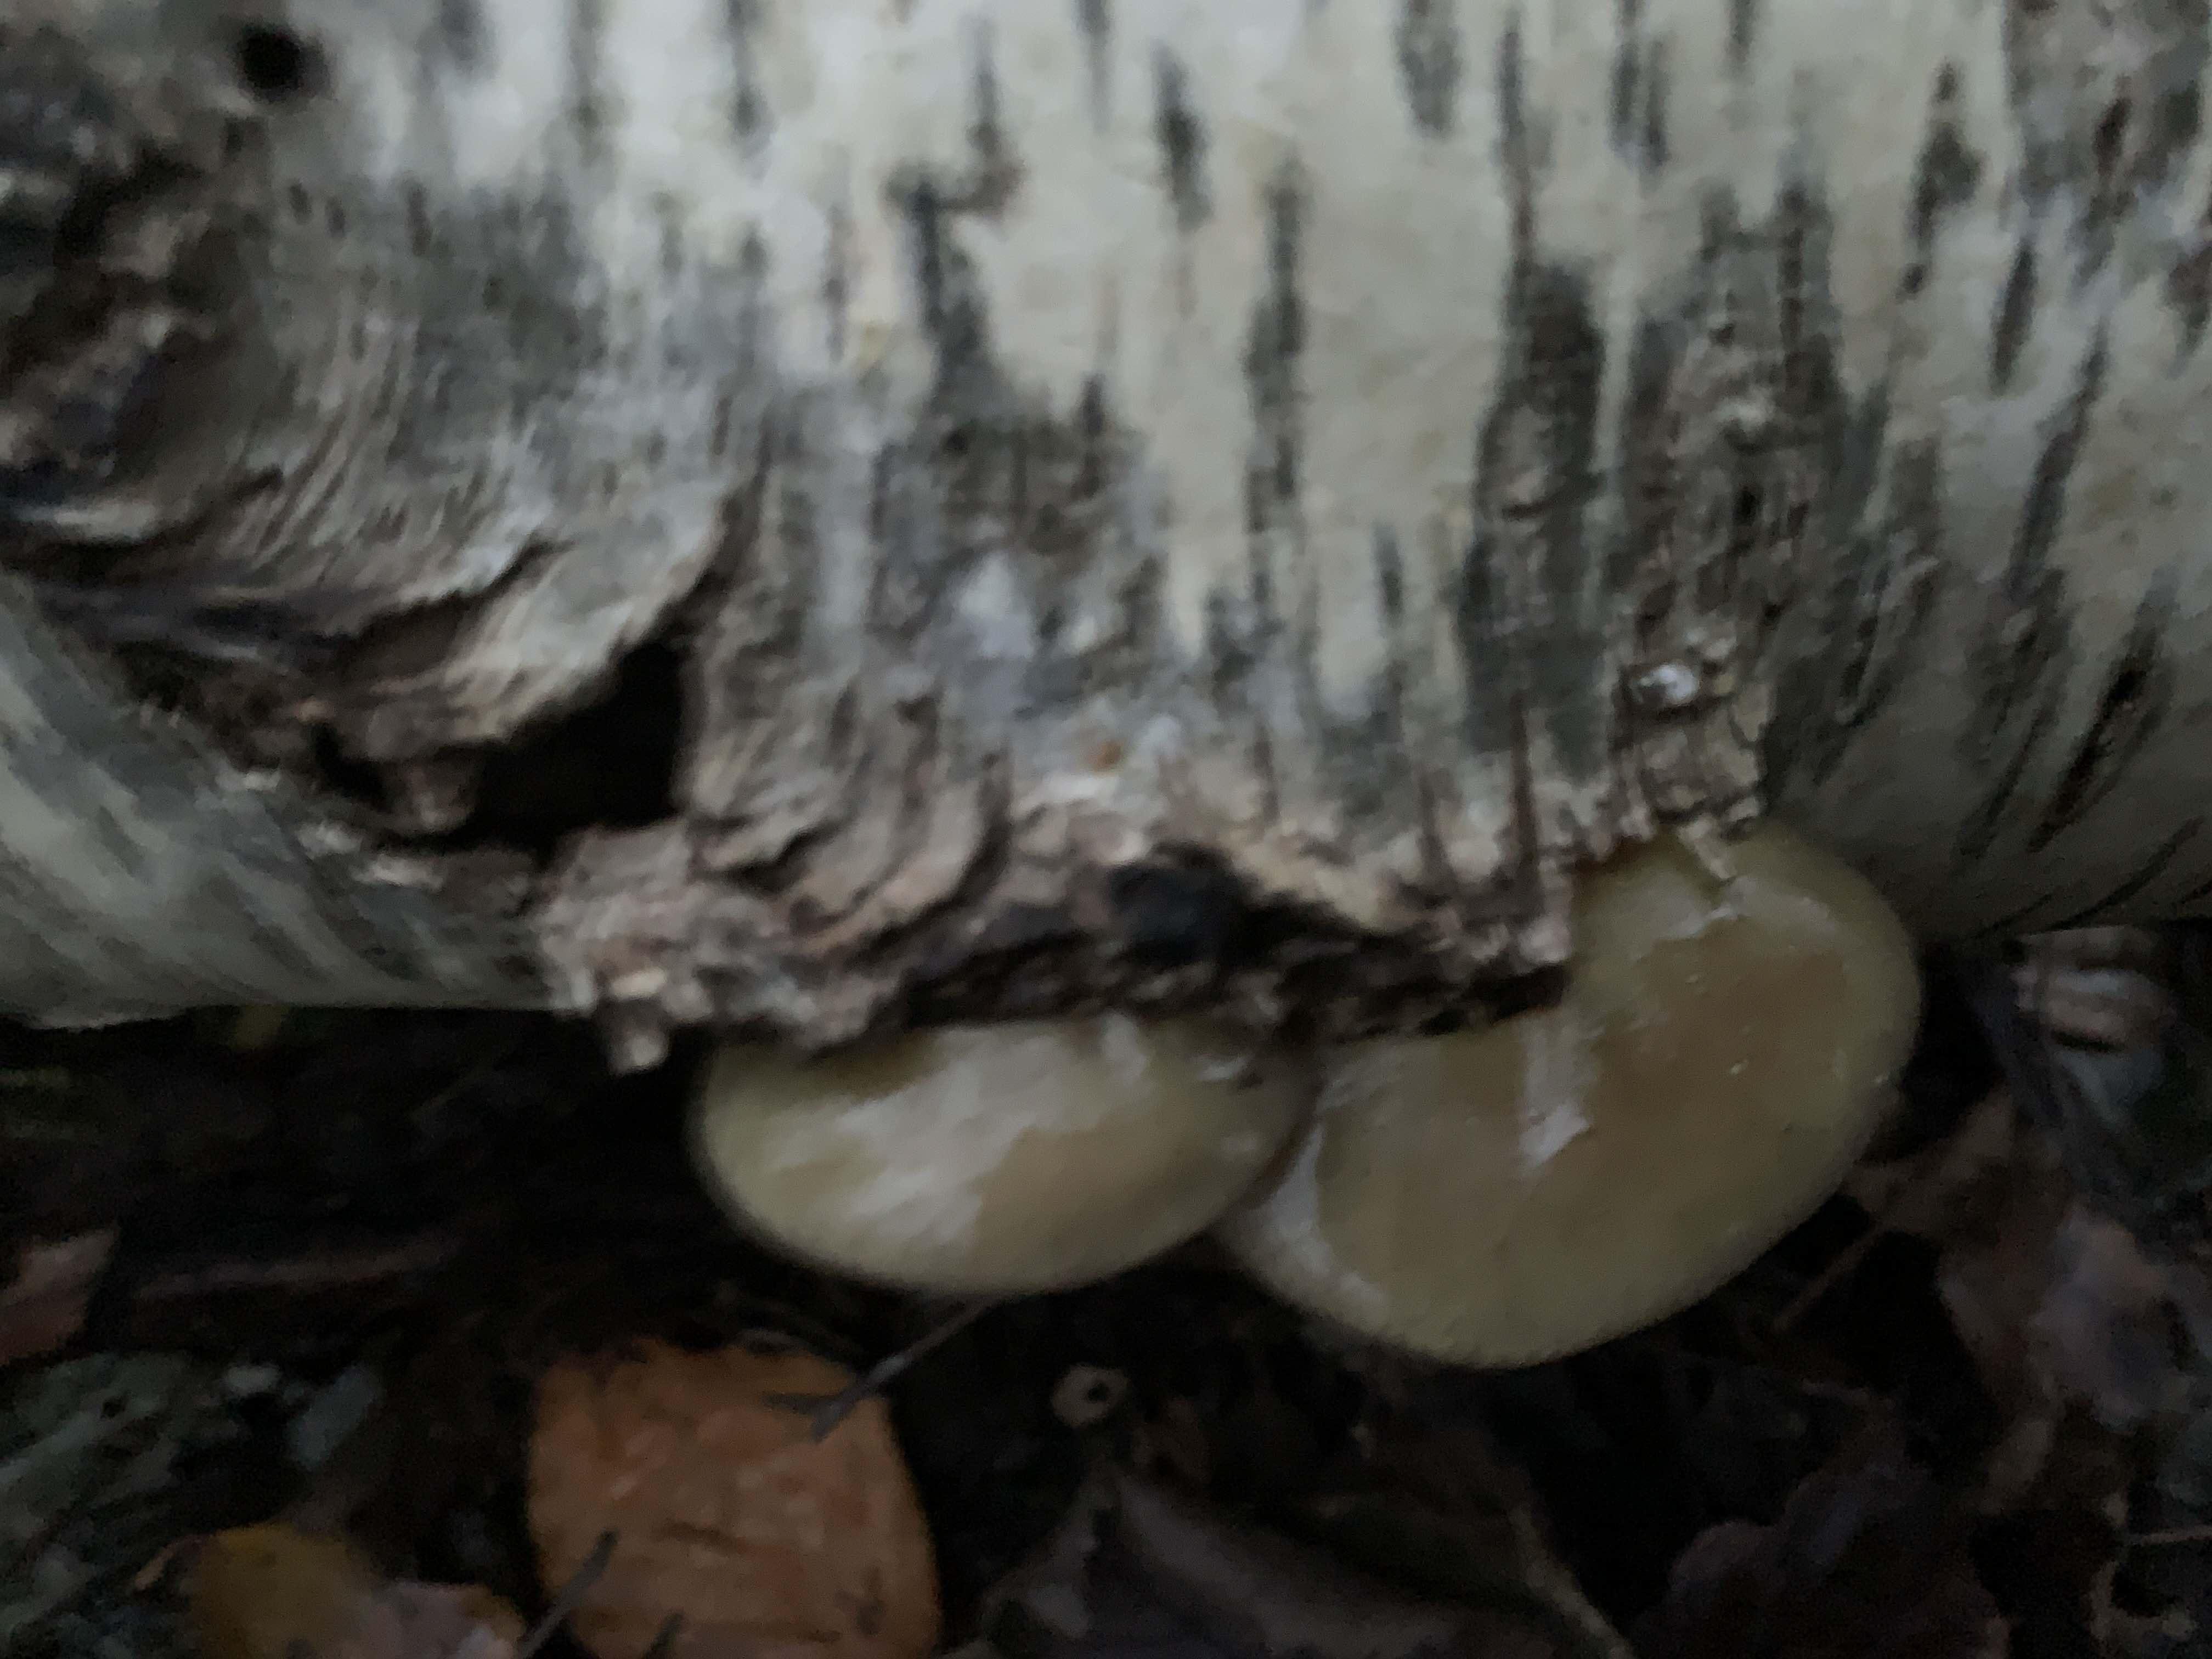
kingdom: Fungi
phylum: Basidiomycota
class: Agaricomycetes
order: Agaricales
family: Sarcomyxaceae
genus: Sarcomyxa
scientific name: Sarcomyxa serotina
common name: gummihat
